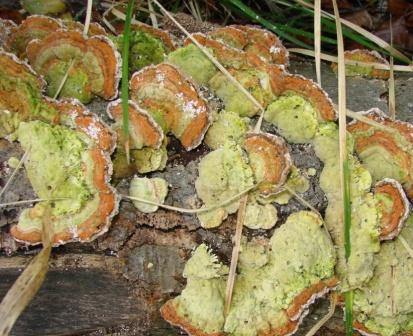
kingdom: Fungi
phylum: Basidiomycota
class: Agaricomycetes
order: Polyporales
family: Polyporaceae
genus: Lenzites
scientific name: Lenzites betulinus
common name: birke-læderporesvamp
